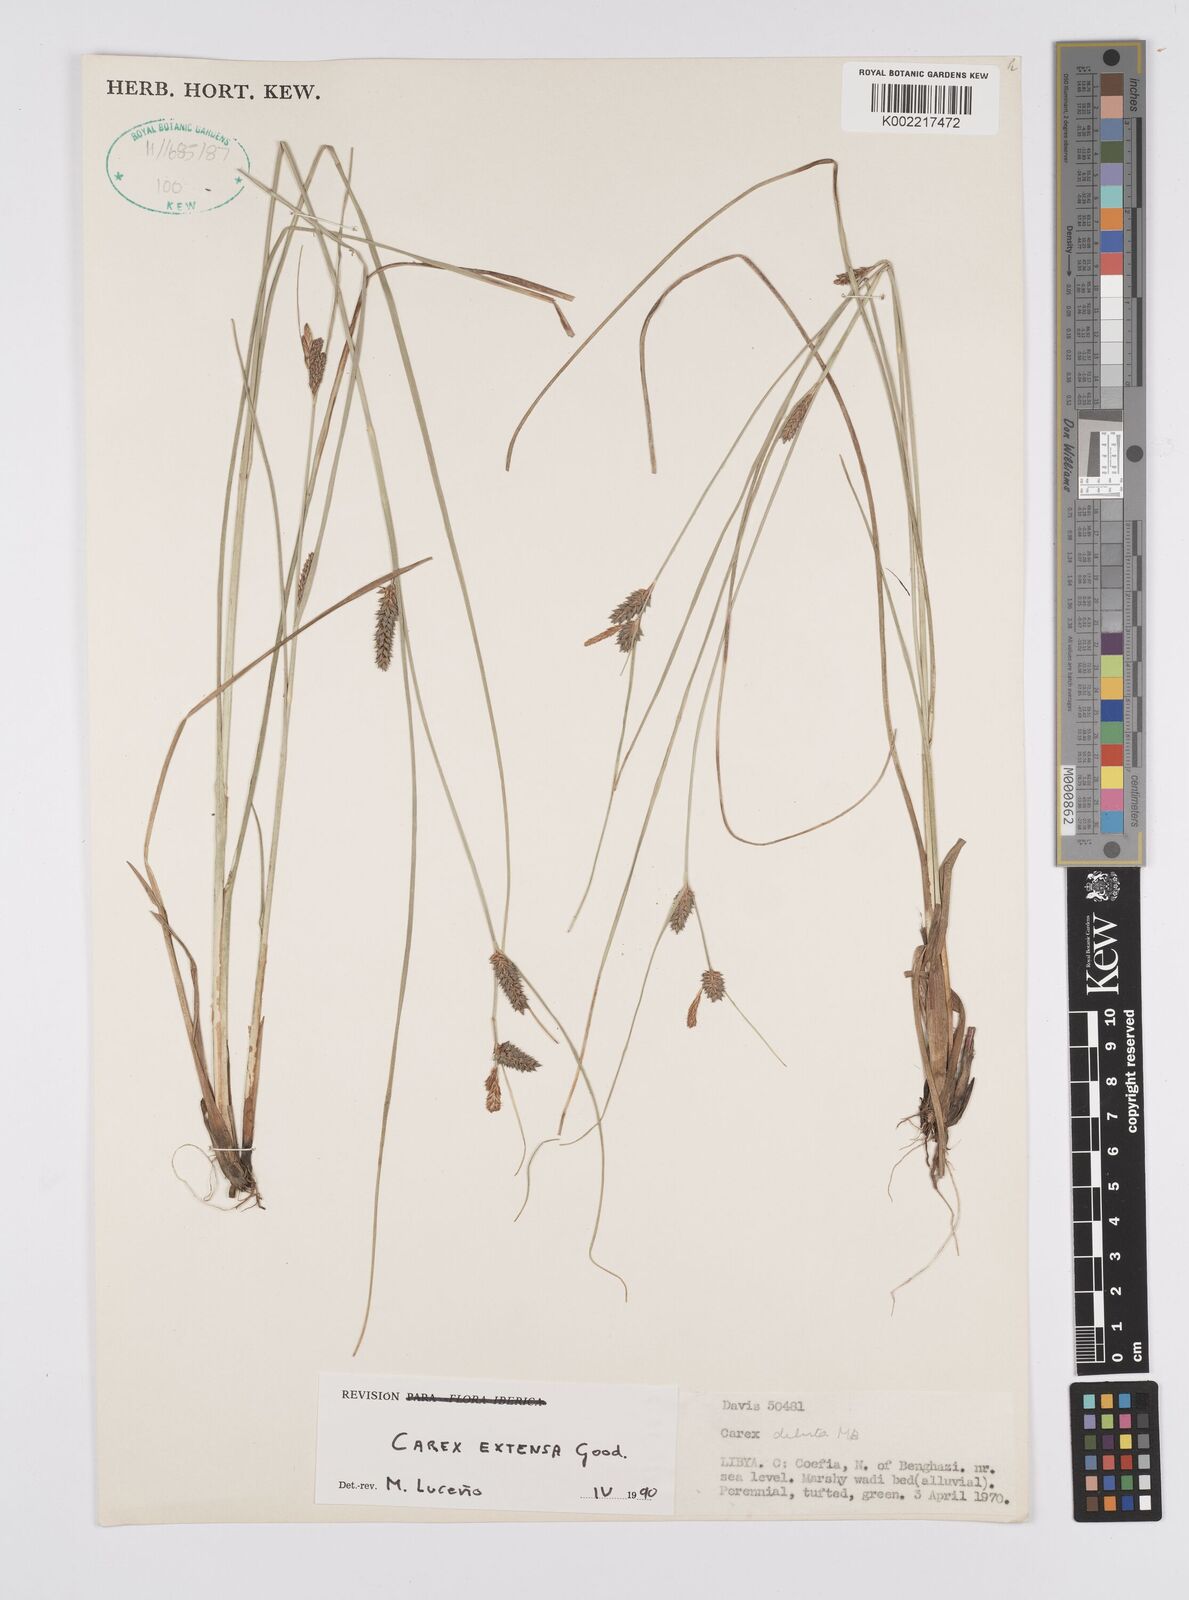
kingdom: Plantae
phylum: Tracheophyta
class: Liliopsida
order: Poales
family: Cyperaceae
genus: Carex
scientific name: Carex extensa
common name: Long-bracted sedge
